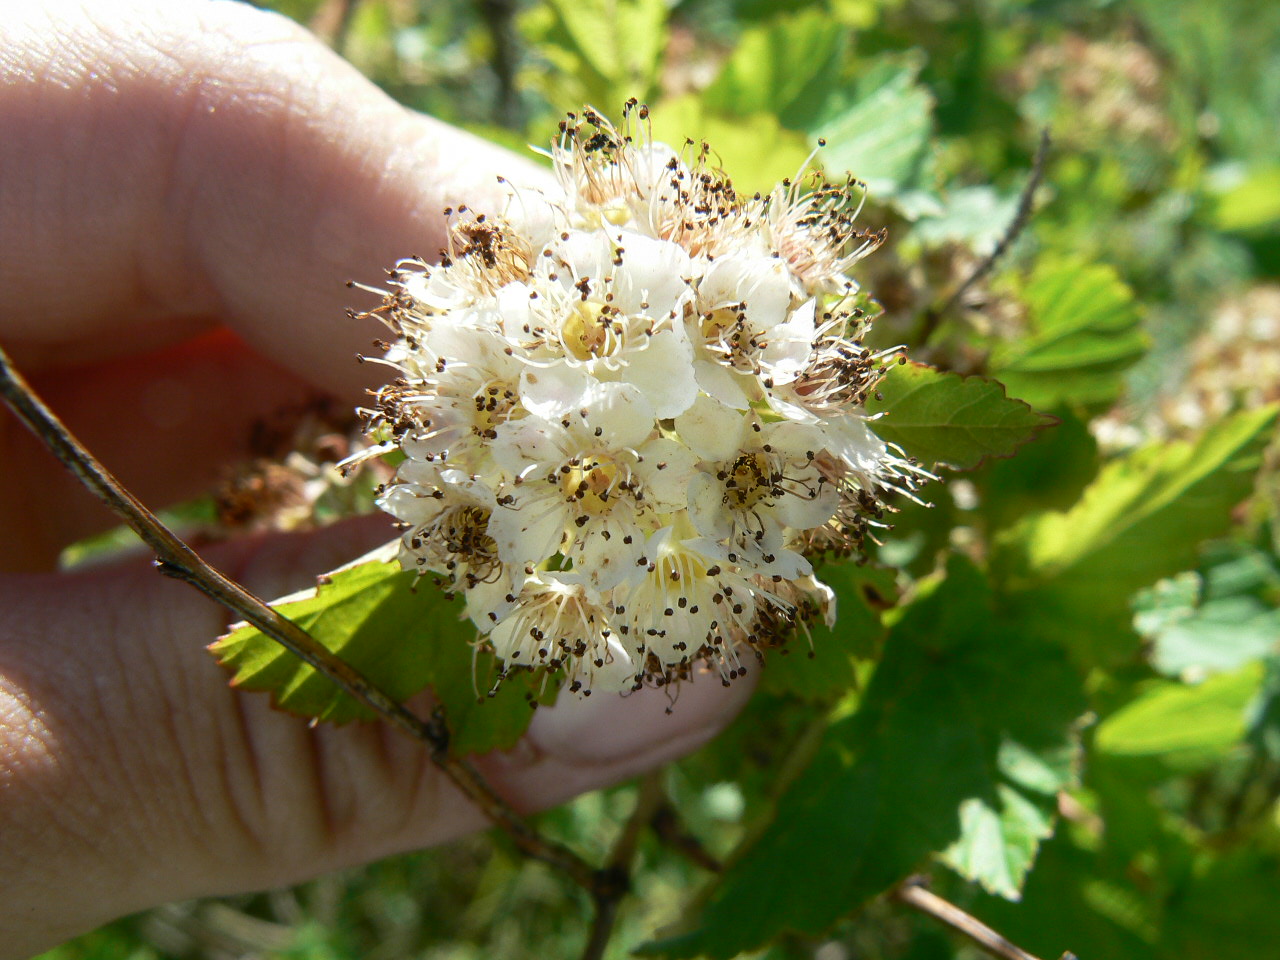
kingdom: Plantae
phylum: Tracheophyta
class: Polypodiopsida
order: Polypodiales
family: Thelypteridaceae
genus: Thelypteris
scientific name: Thelypteris palustris
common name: Marsh fern
